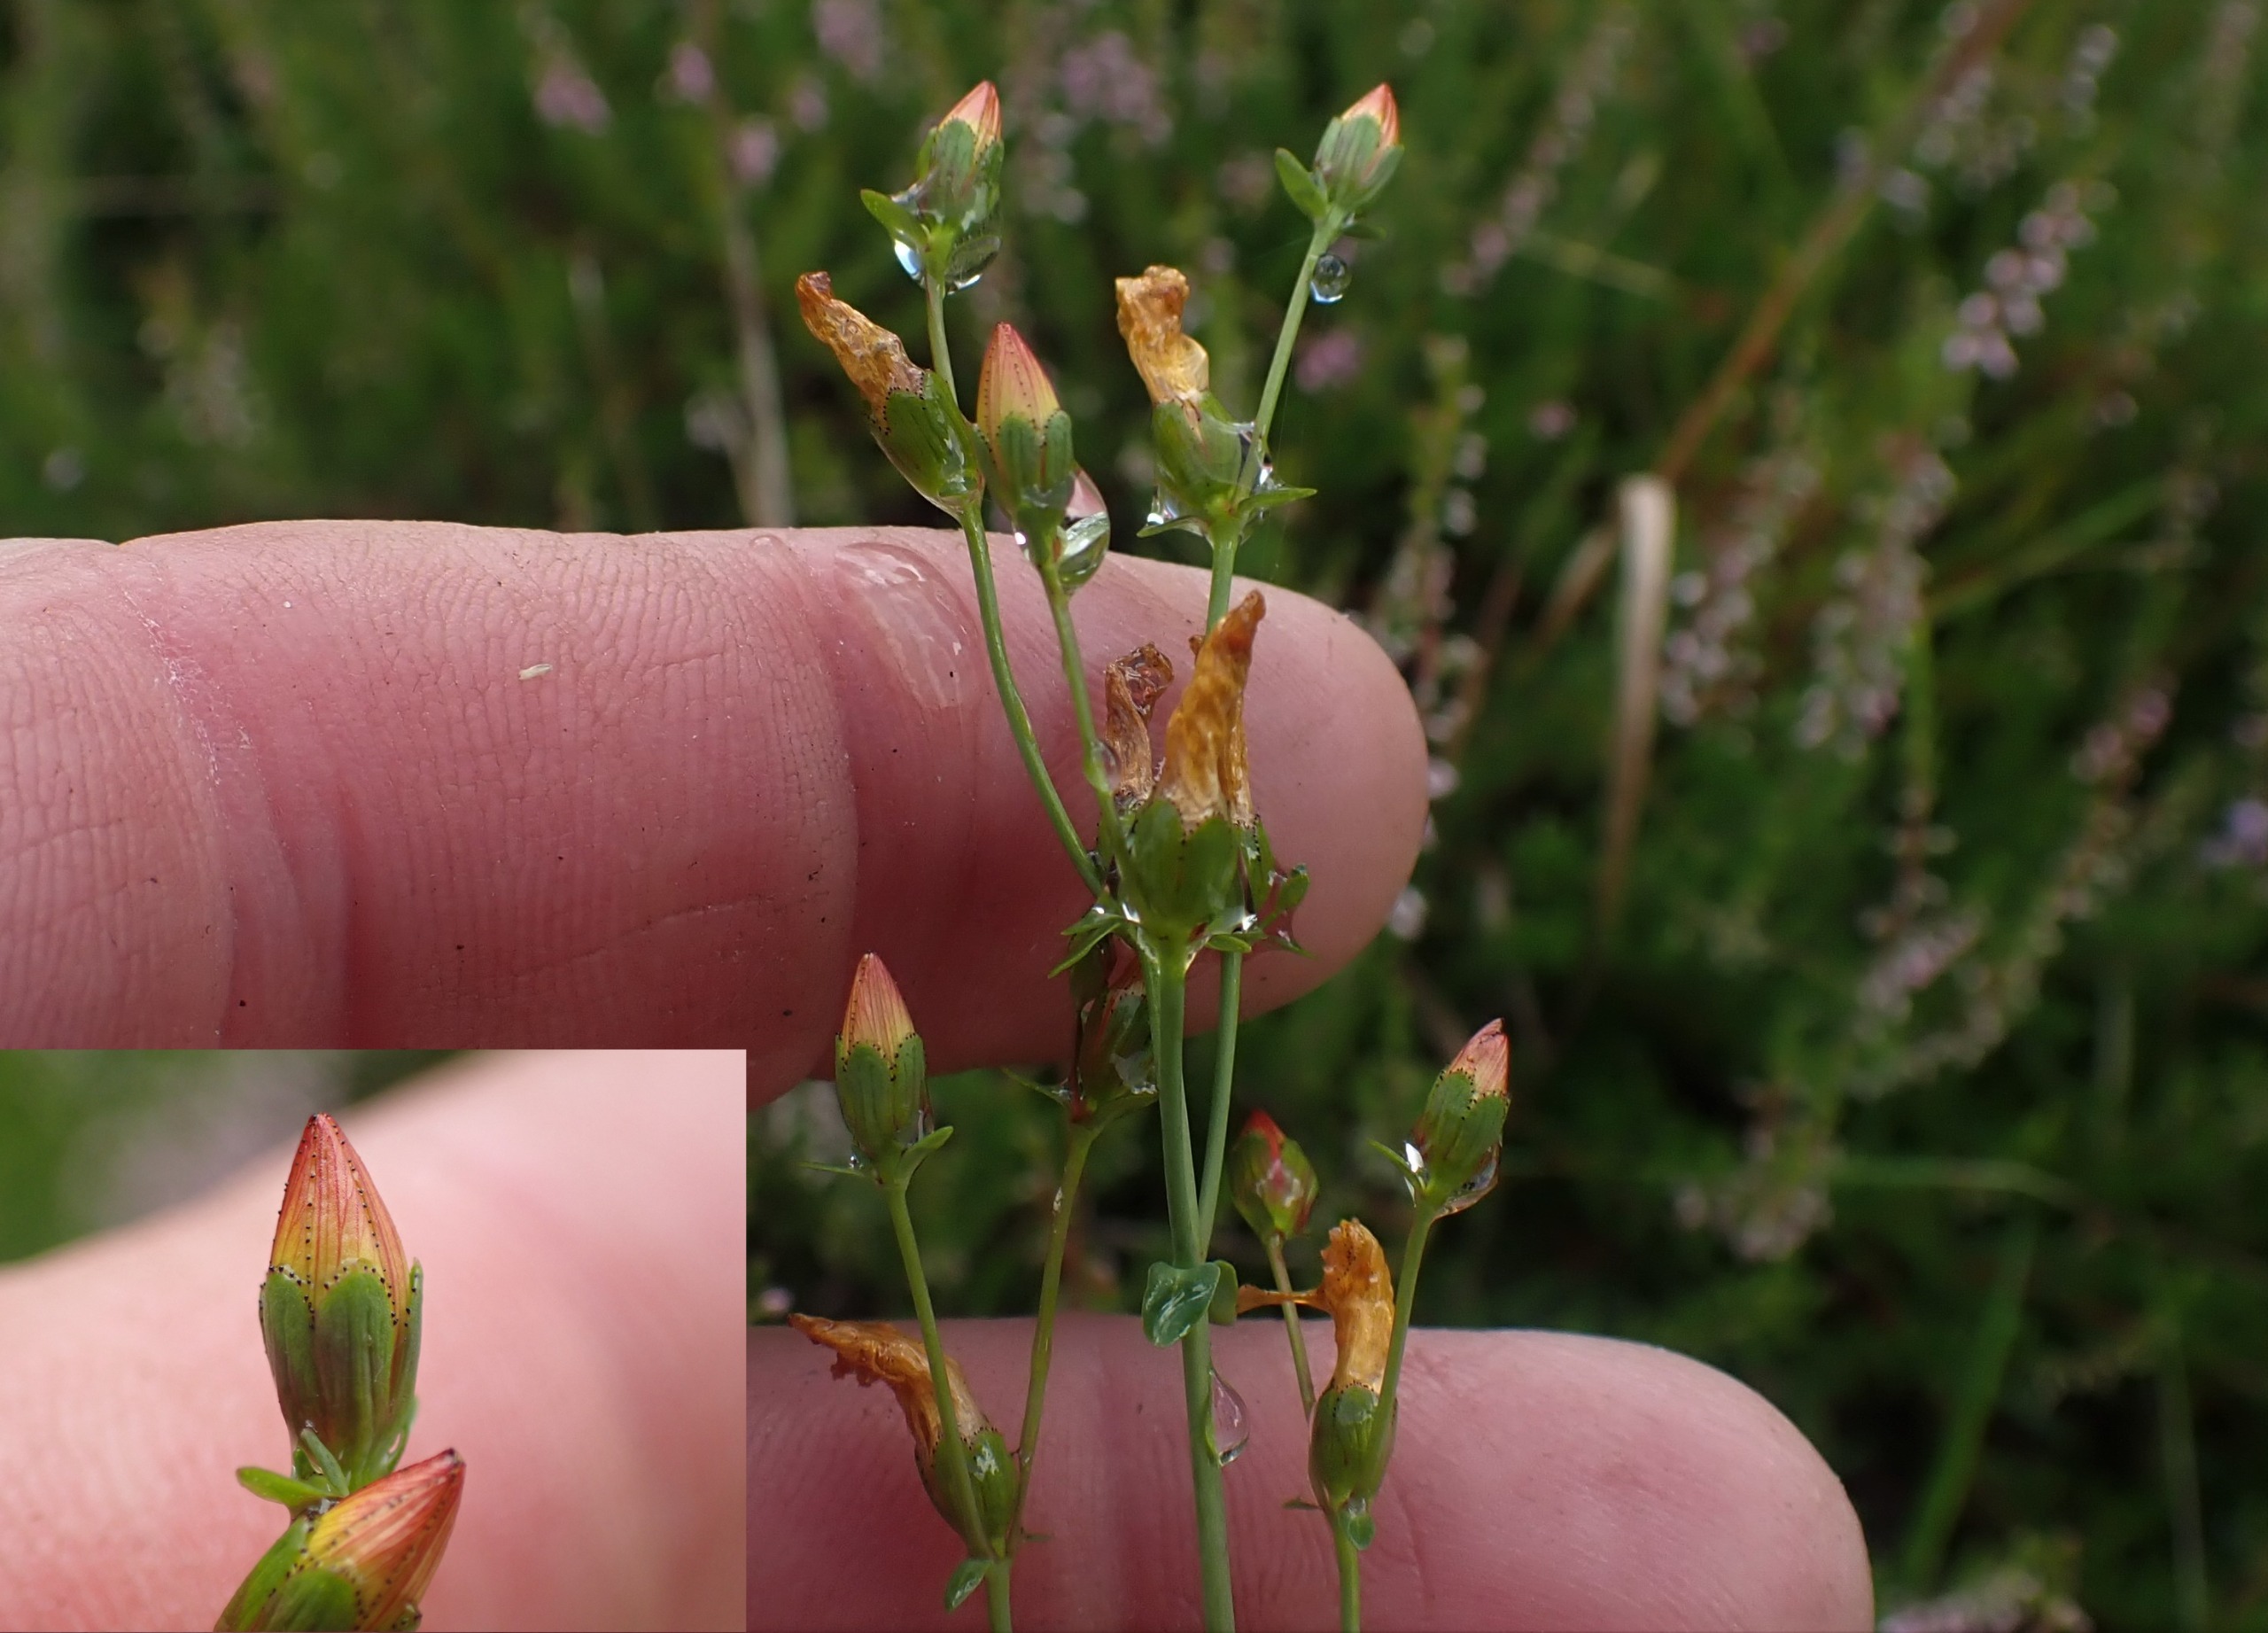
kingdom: Plantae
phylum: Tracheophyta
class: Magnoliopsida
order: Malpighiales
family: Hypericaceae
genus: Hypericum
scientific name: Hypericum pulchrum
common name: Smuk perikon
